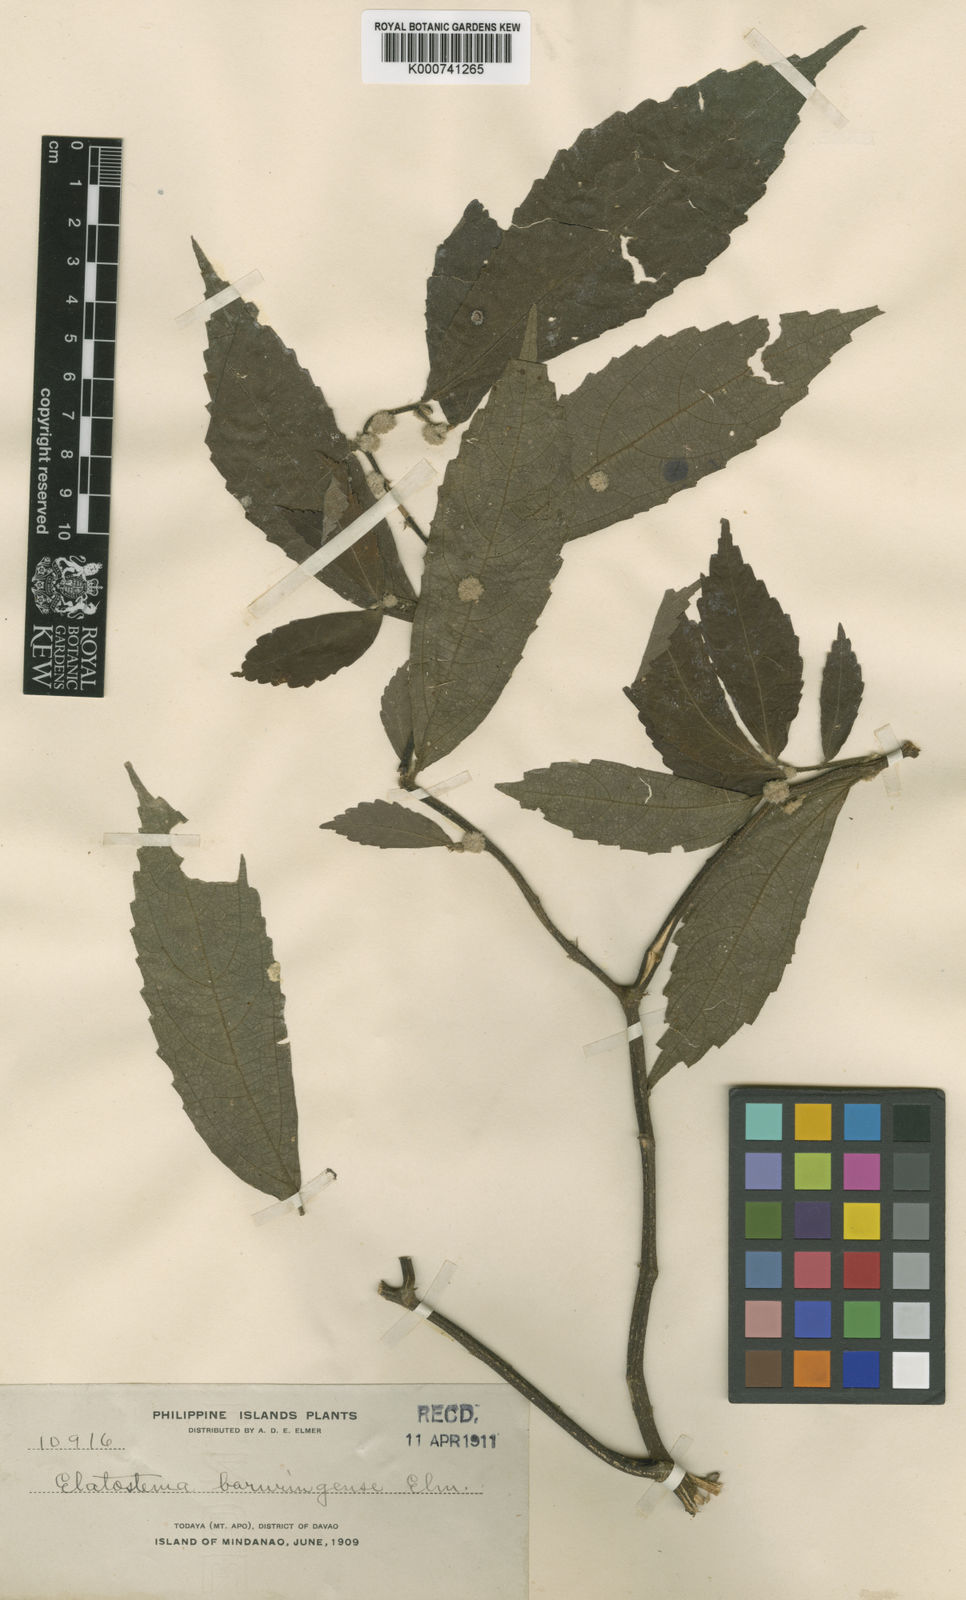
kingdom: Plantae
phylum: Tracheophyta
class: Magnoliopsida
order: Rosales
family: Urticaceae
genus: Elatostema
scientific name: Elatostema baruringense
